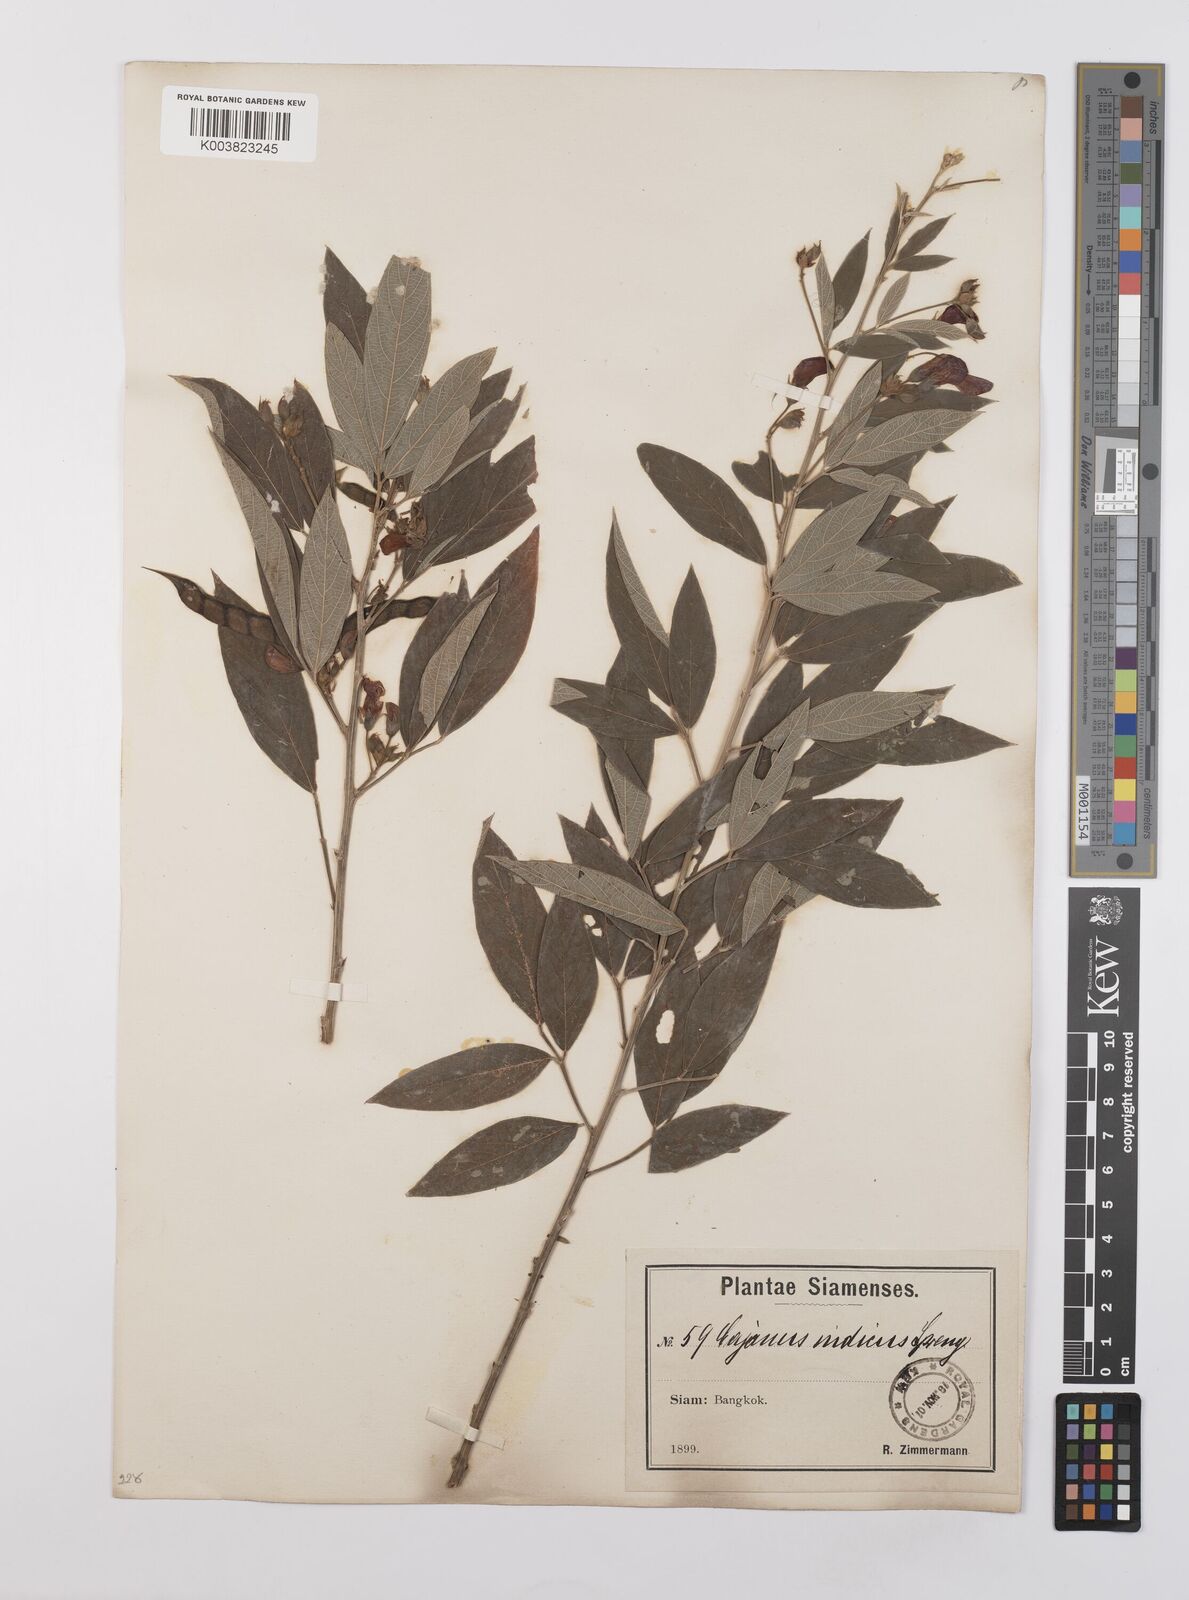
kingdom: Plantae
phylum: Tracheophyta
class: Magnoliopsida
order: Fabales
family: Fabaceae
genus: Cajanus
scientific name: Cajanus cajan
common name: Pigeonpea
